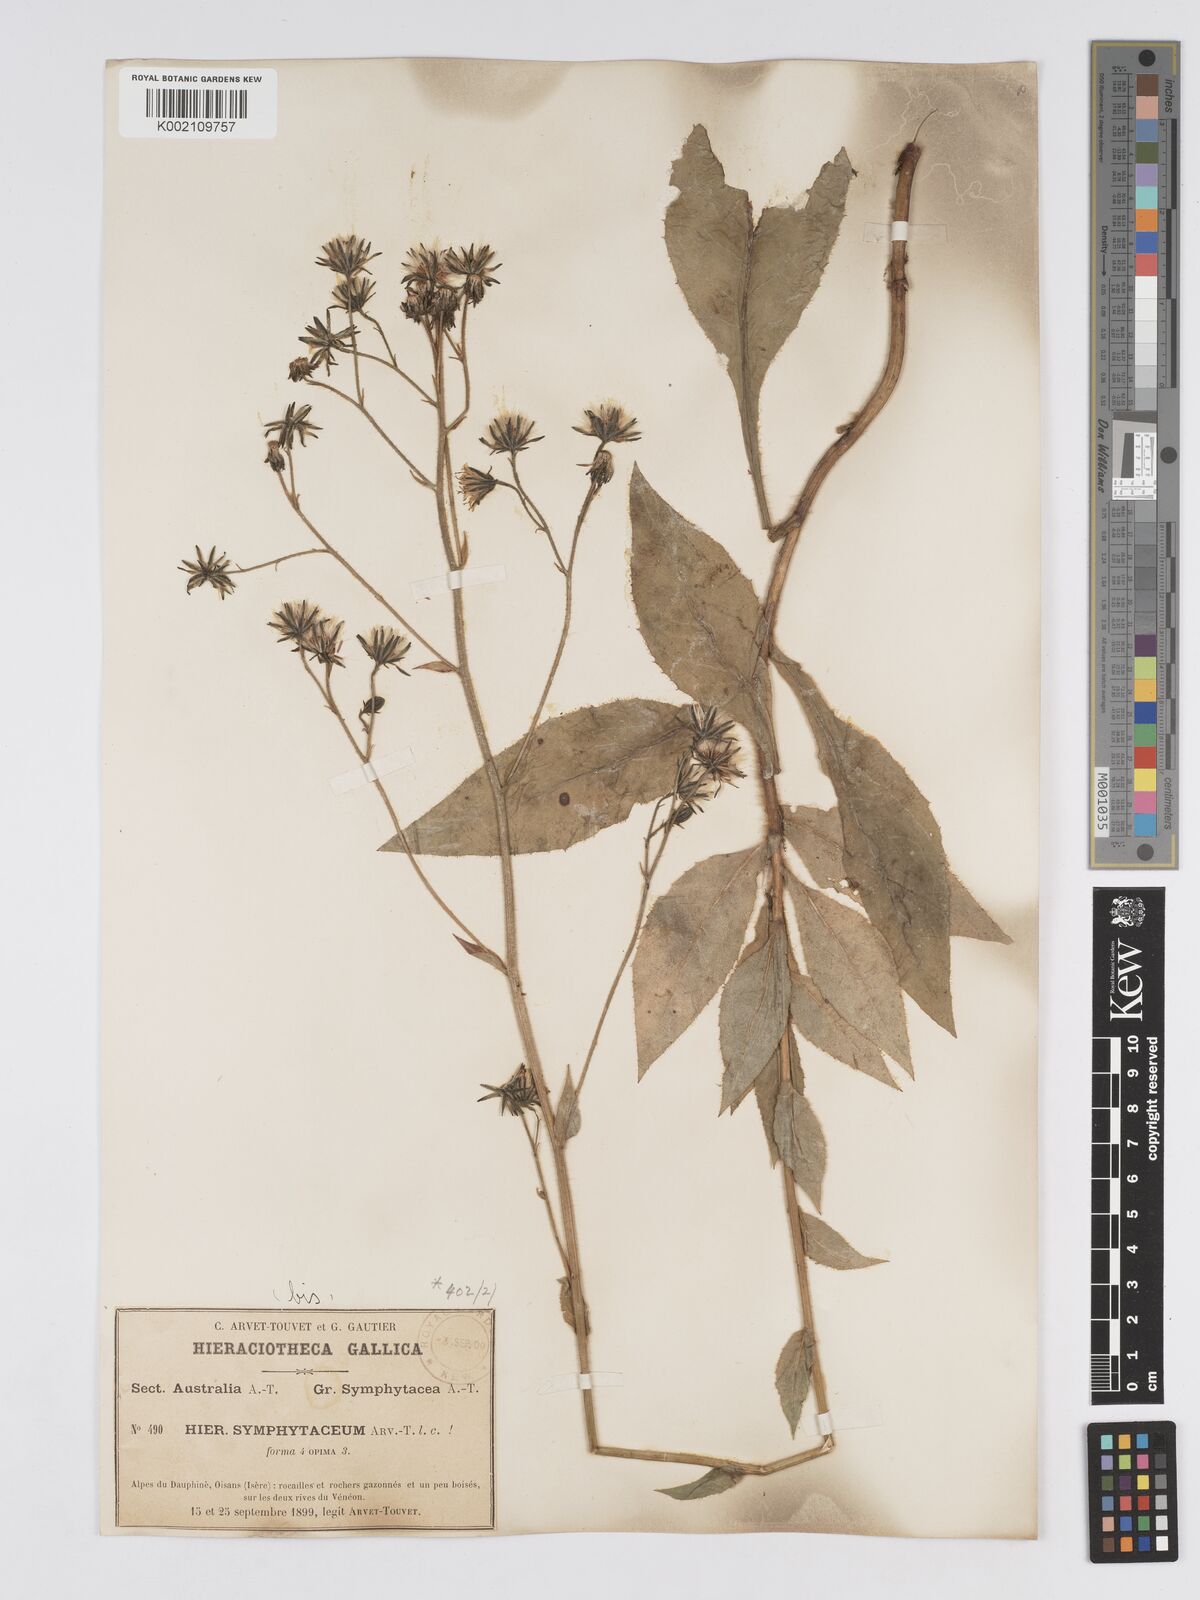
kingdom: Plantae
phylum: Tracheophyta
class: Magnoliopsida
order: Asterales
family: Asteraceae
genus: Hieracium
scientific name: Hieracium symphytaceum
